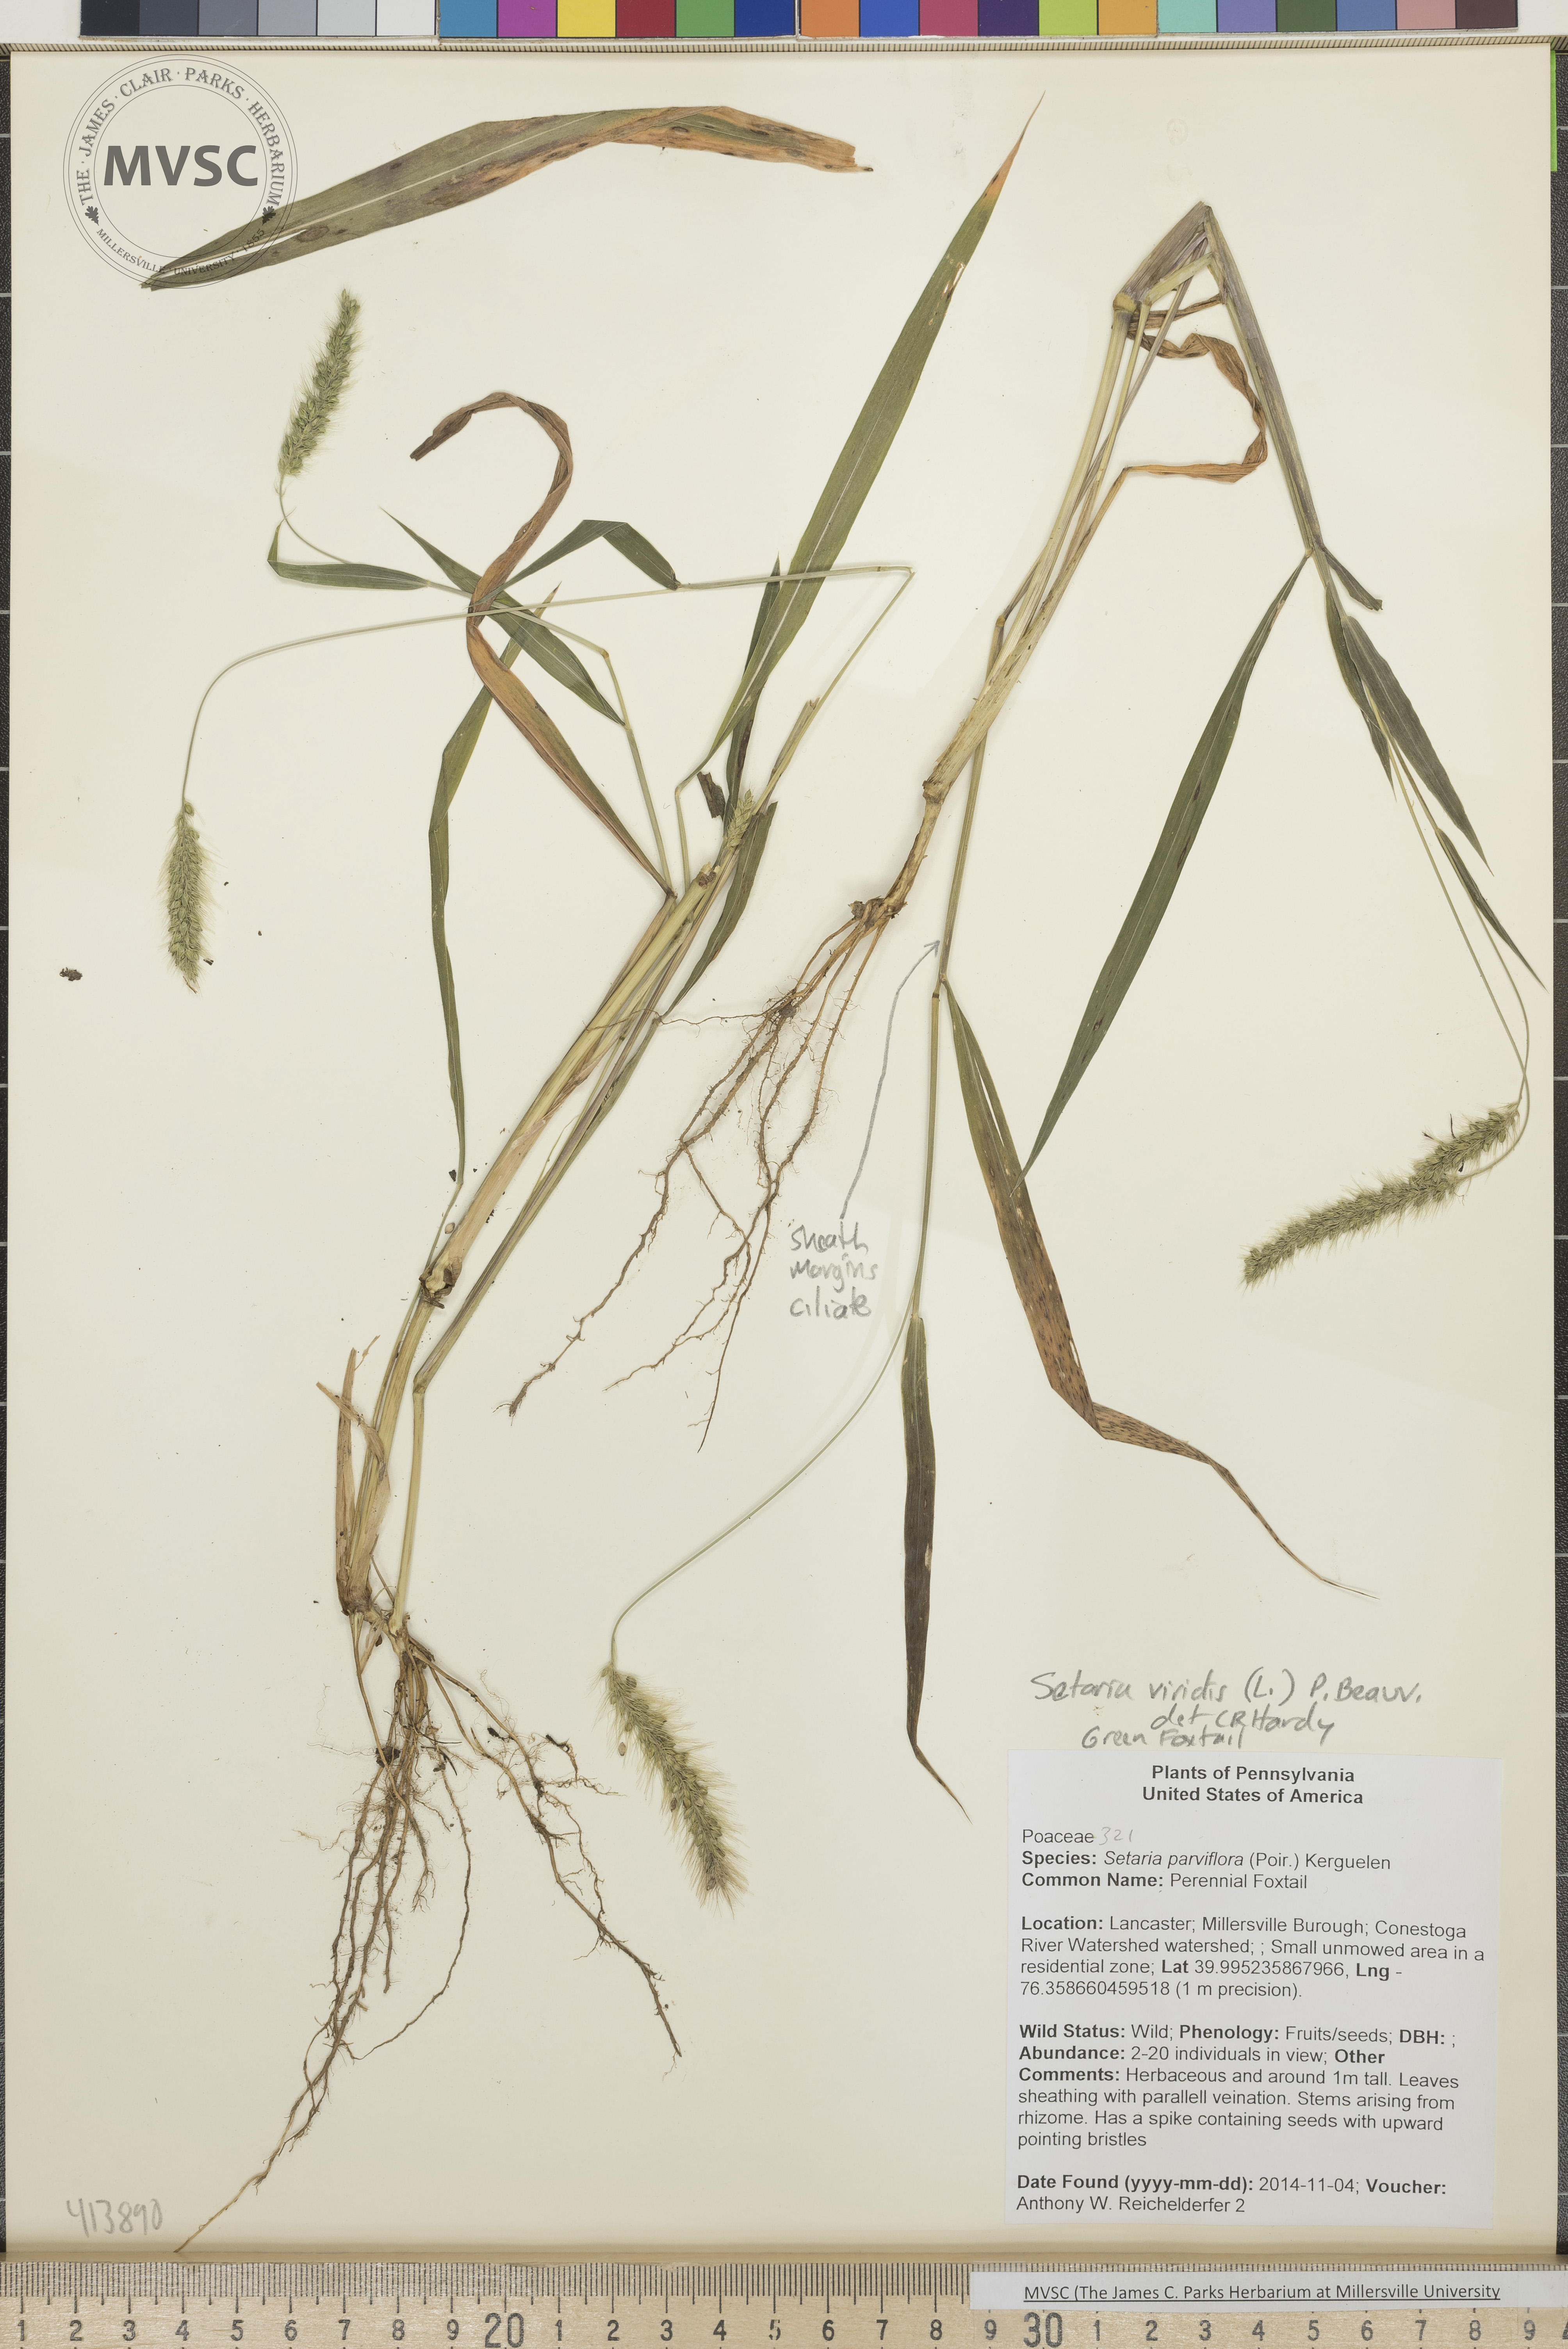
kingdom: Plantae
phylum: Tracheophyta
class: Liliopsida
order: Poales
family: Poaceae
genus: Setaria
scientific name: Setaria viridis
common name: Green Foxtail
